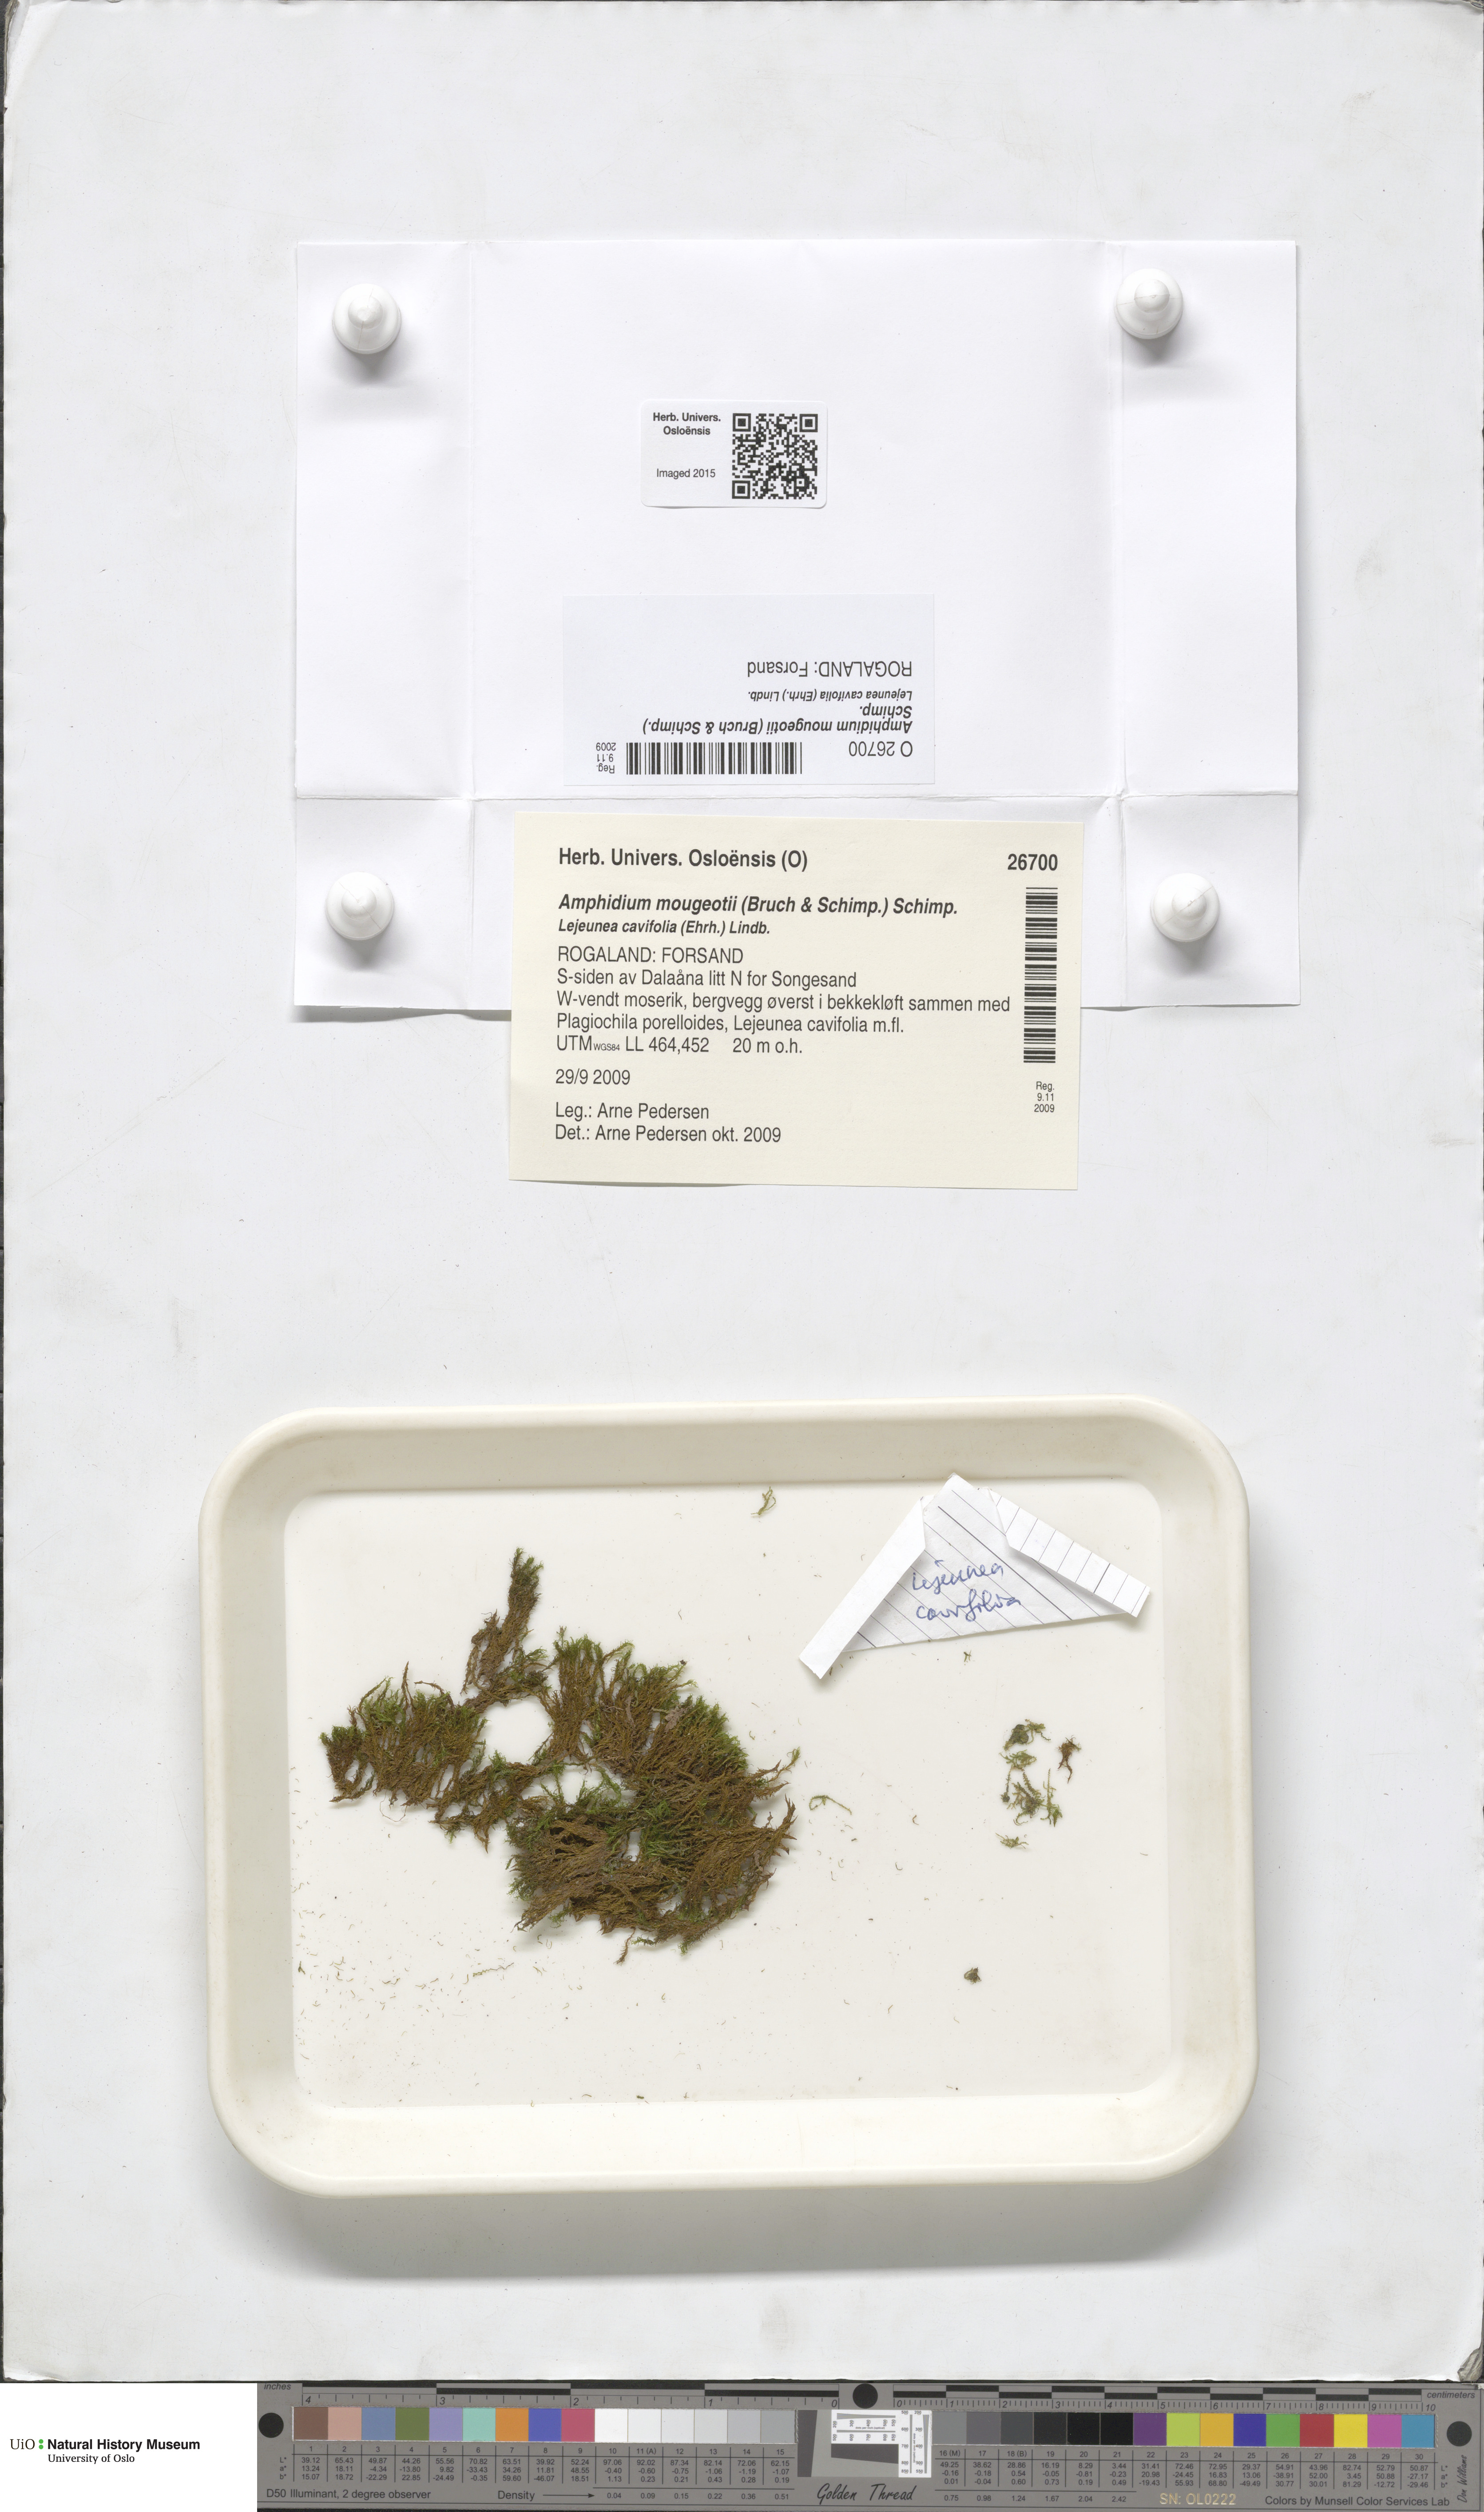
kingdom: Plantae
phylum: Bryophyta
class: Bryopsida
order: Dicranales
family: Amphidiaceae
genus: Amphidium
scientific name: Amphidium mougeotii
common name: Mougeot's yoke moss
